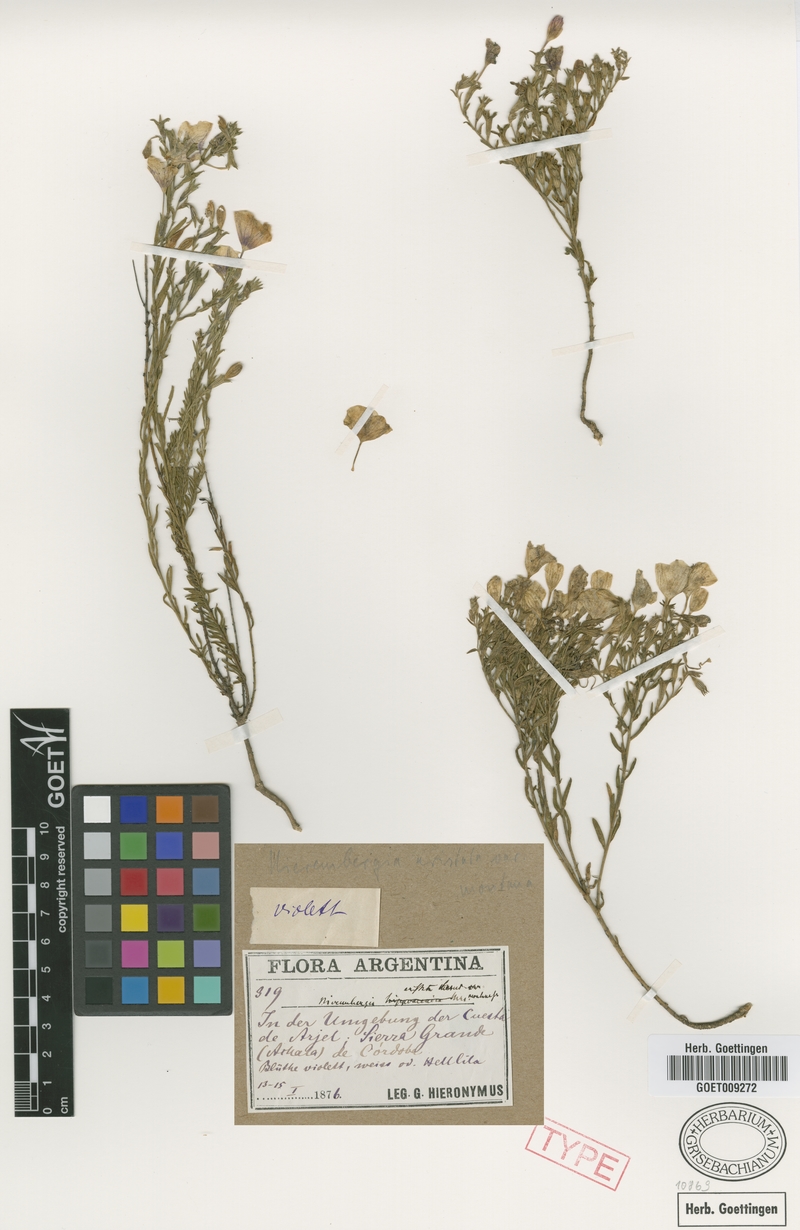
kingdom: Plantae
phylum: Tracheophyta
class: Magnoliopsida
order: Solanales
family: Solanaceae
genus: Nierembergia
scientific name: Nierembergia linariifolia
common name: Dwarf cupflower
